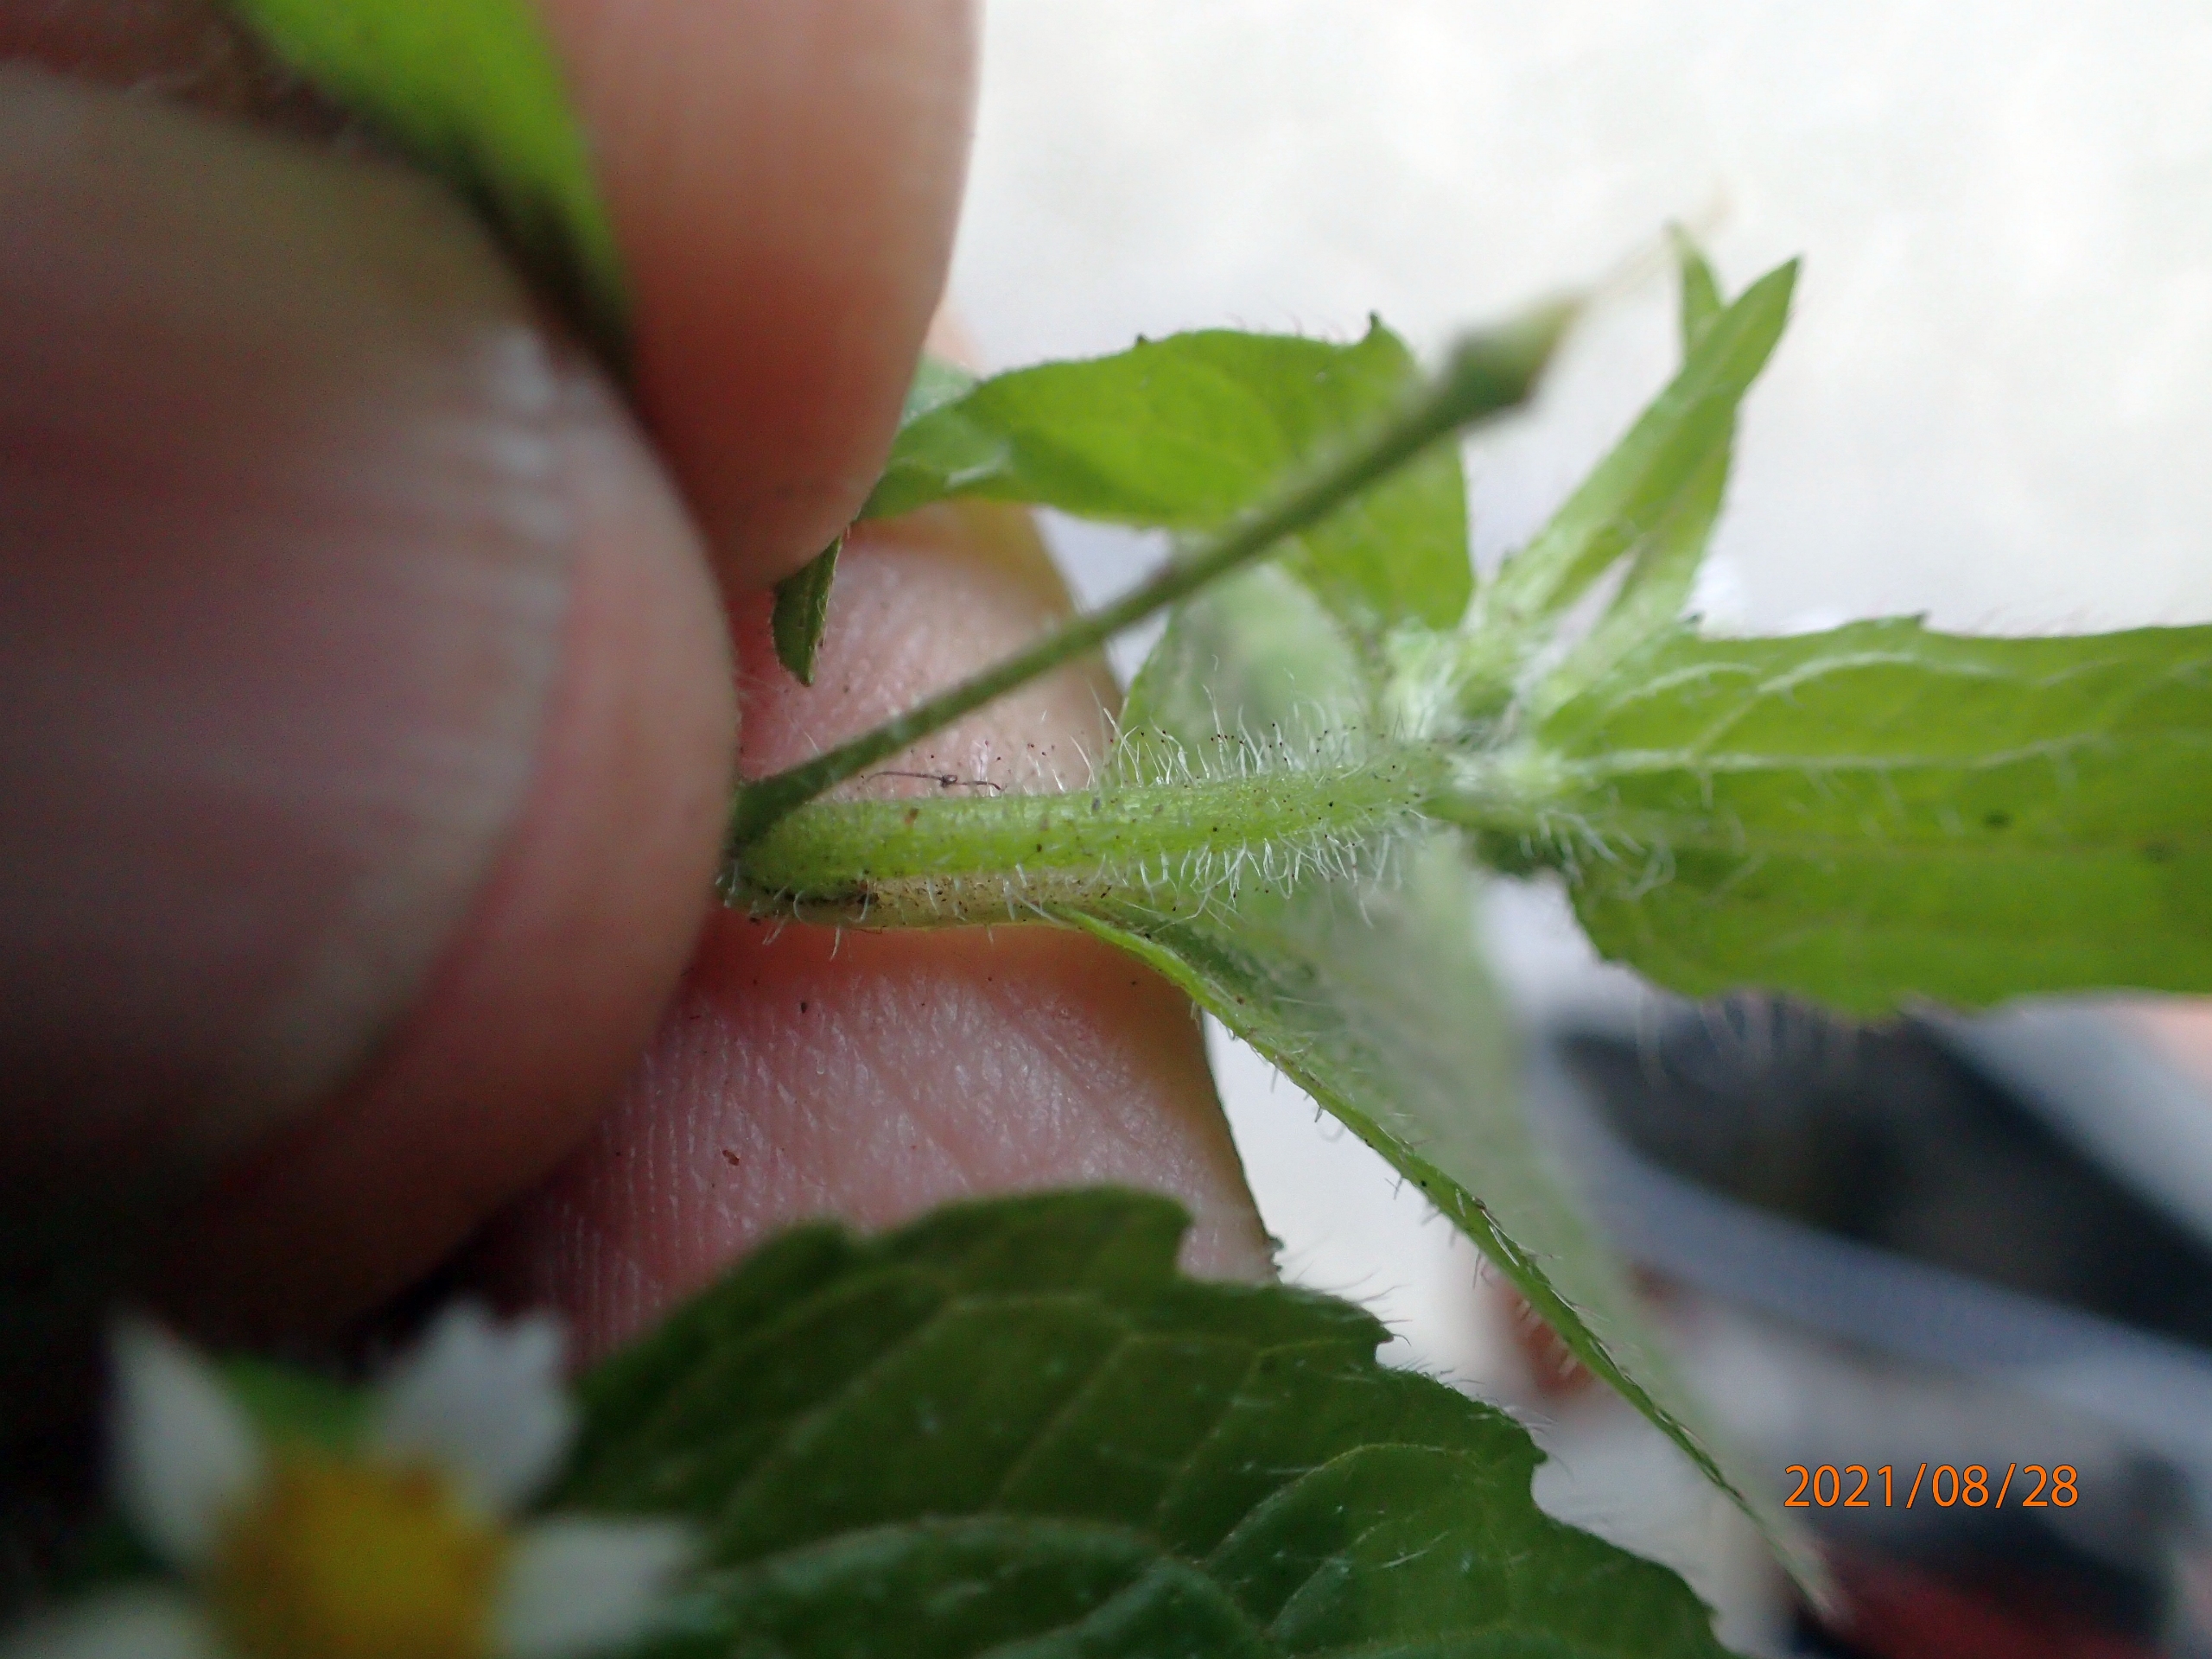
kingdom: Plantae
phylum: Tracheophyta
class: Magnoliopsida
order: Asterales
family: Asteraceae
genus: Galinsoga
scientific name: Galinsoga quadriradiata
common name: Kirtel-kortstråle
